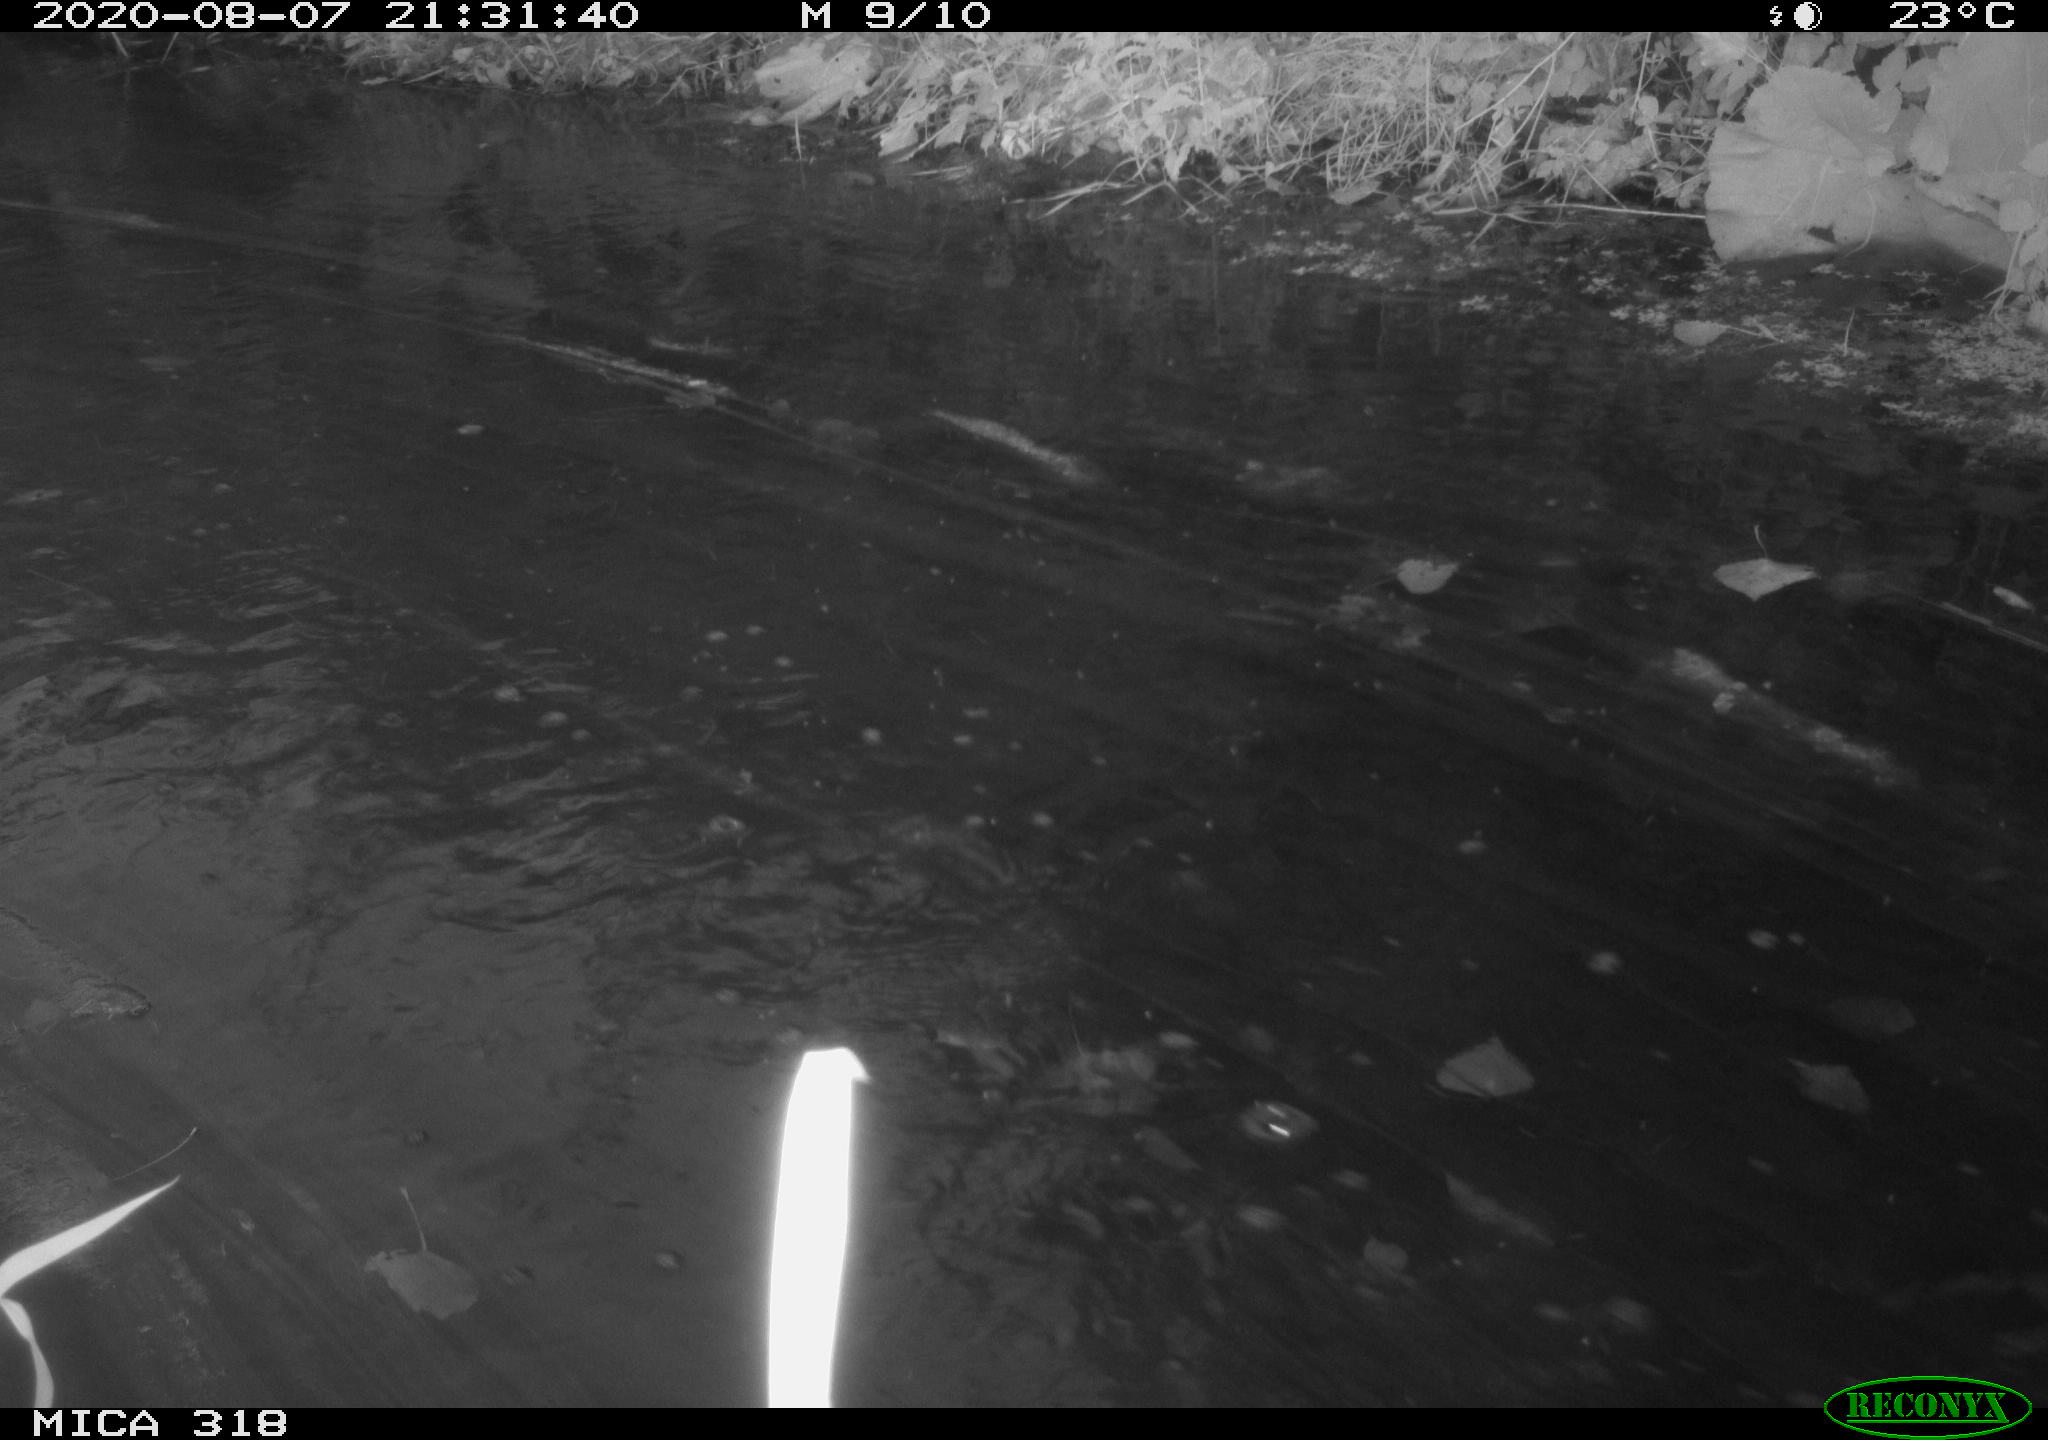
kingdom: Animalia
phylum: Chordata
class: Aves
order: Gruiformes
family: Rallidae
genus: Gallinula
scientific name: Gallinula chloropus
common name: Common moorhen
